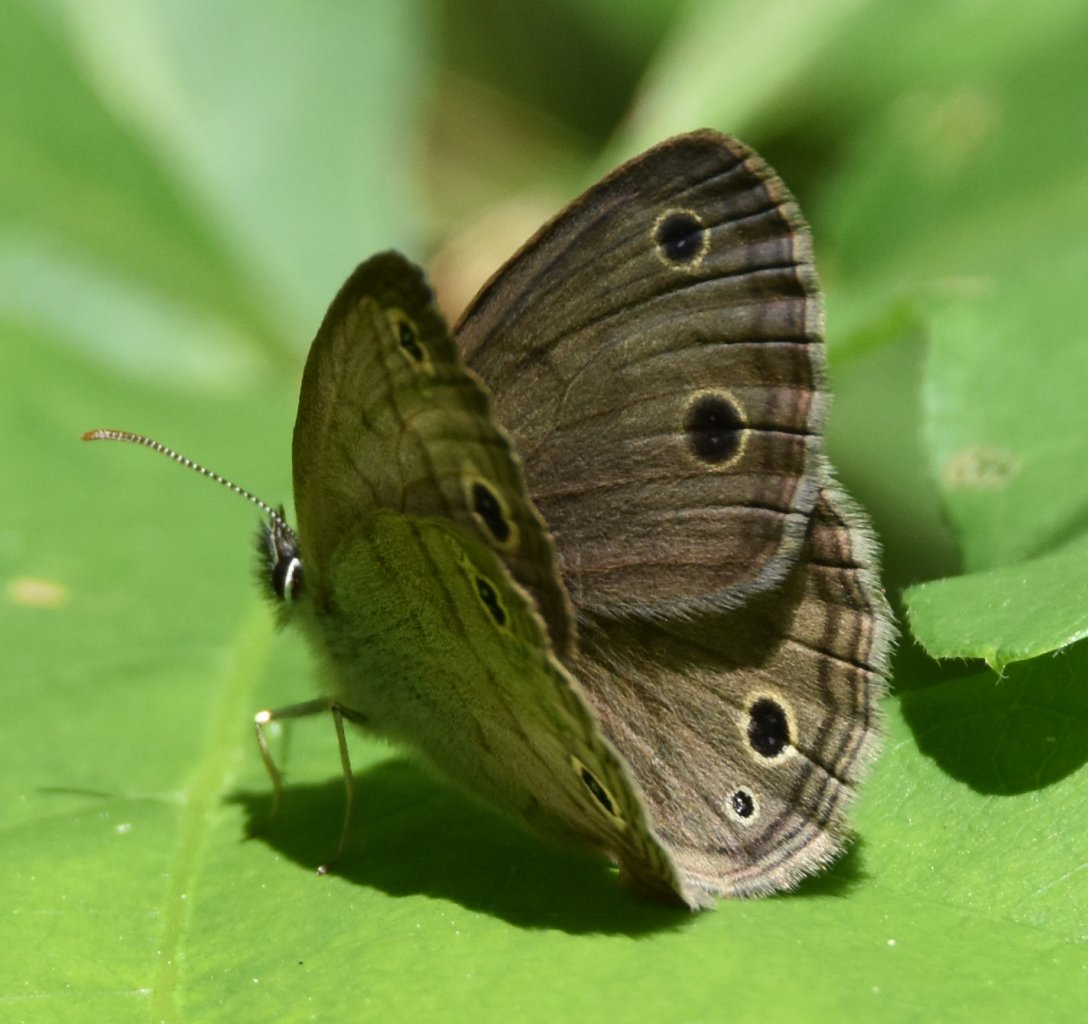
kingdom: Animalia
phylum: Arthropoda
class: Insecta
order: Lepidoptera
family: Nymphalidae
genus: Euptychia
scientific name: Euptychia cymela
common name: Little Wood Satyr
